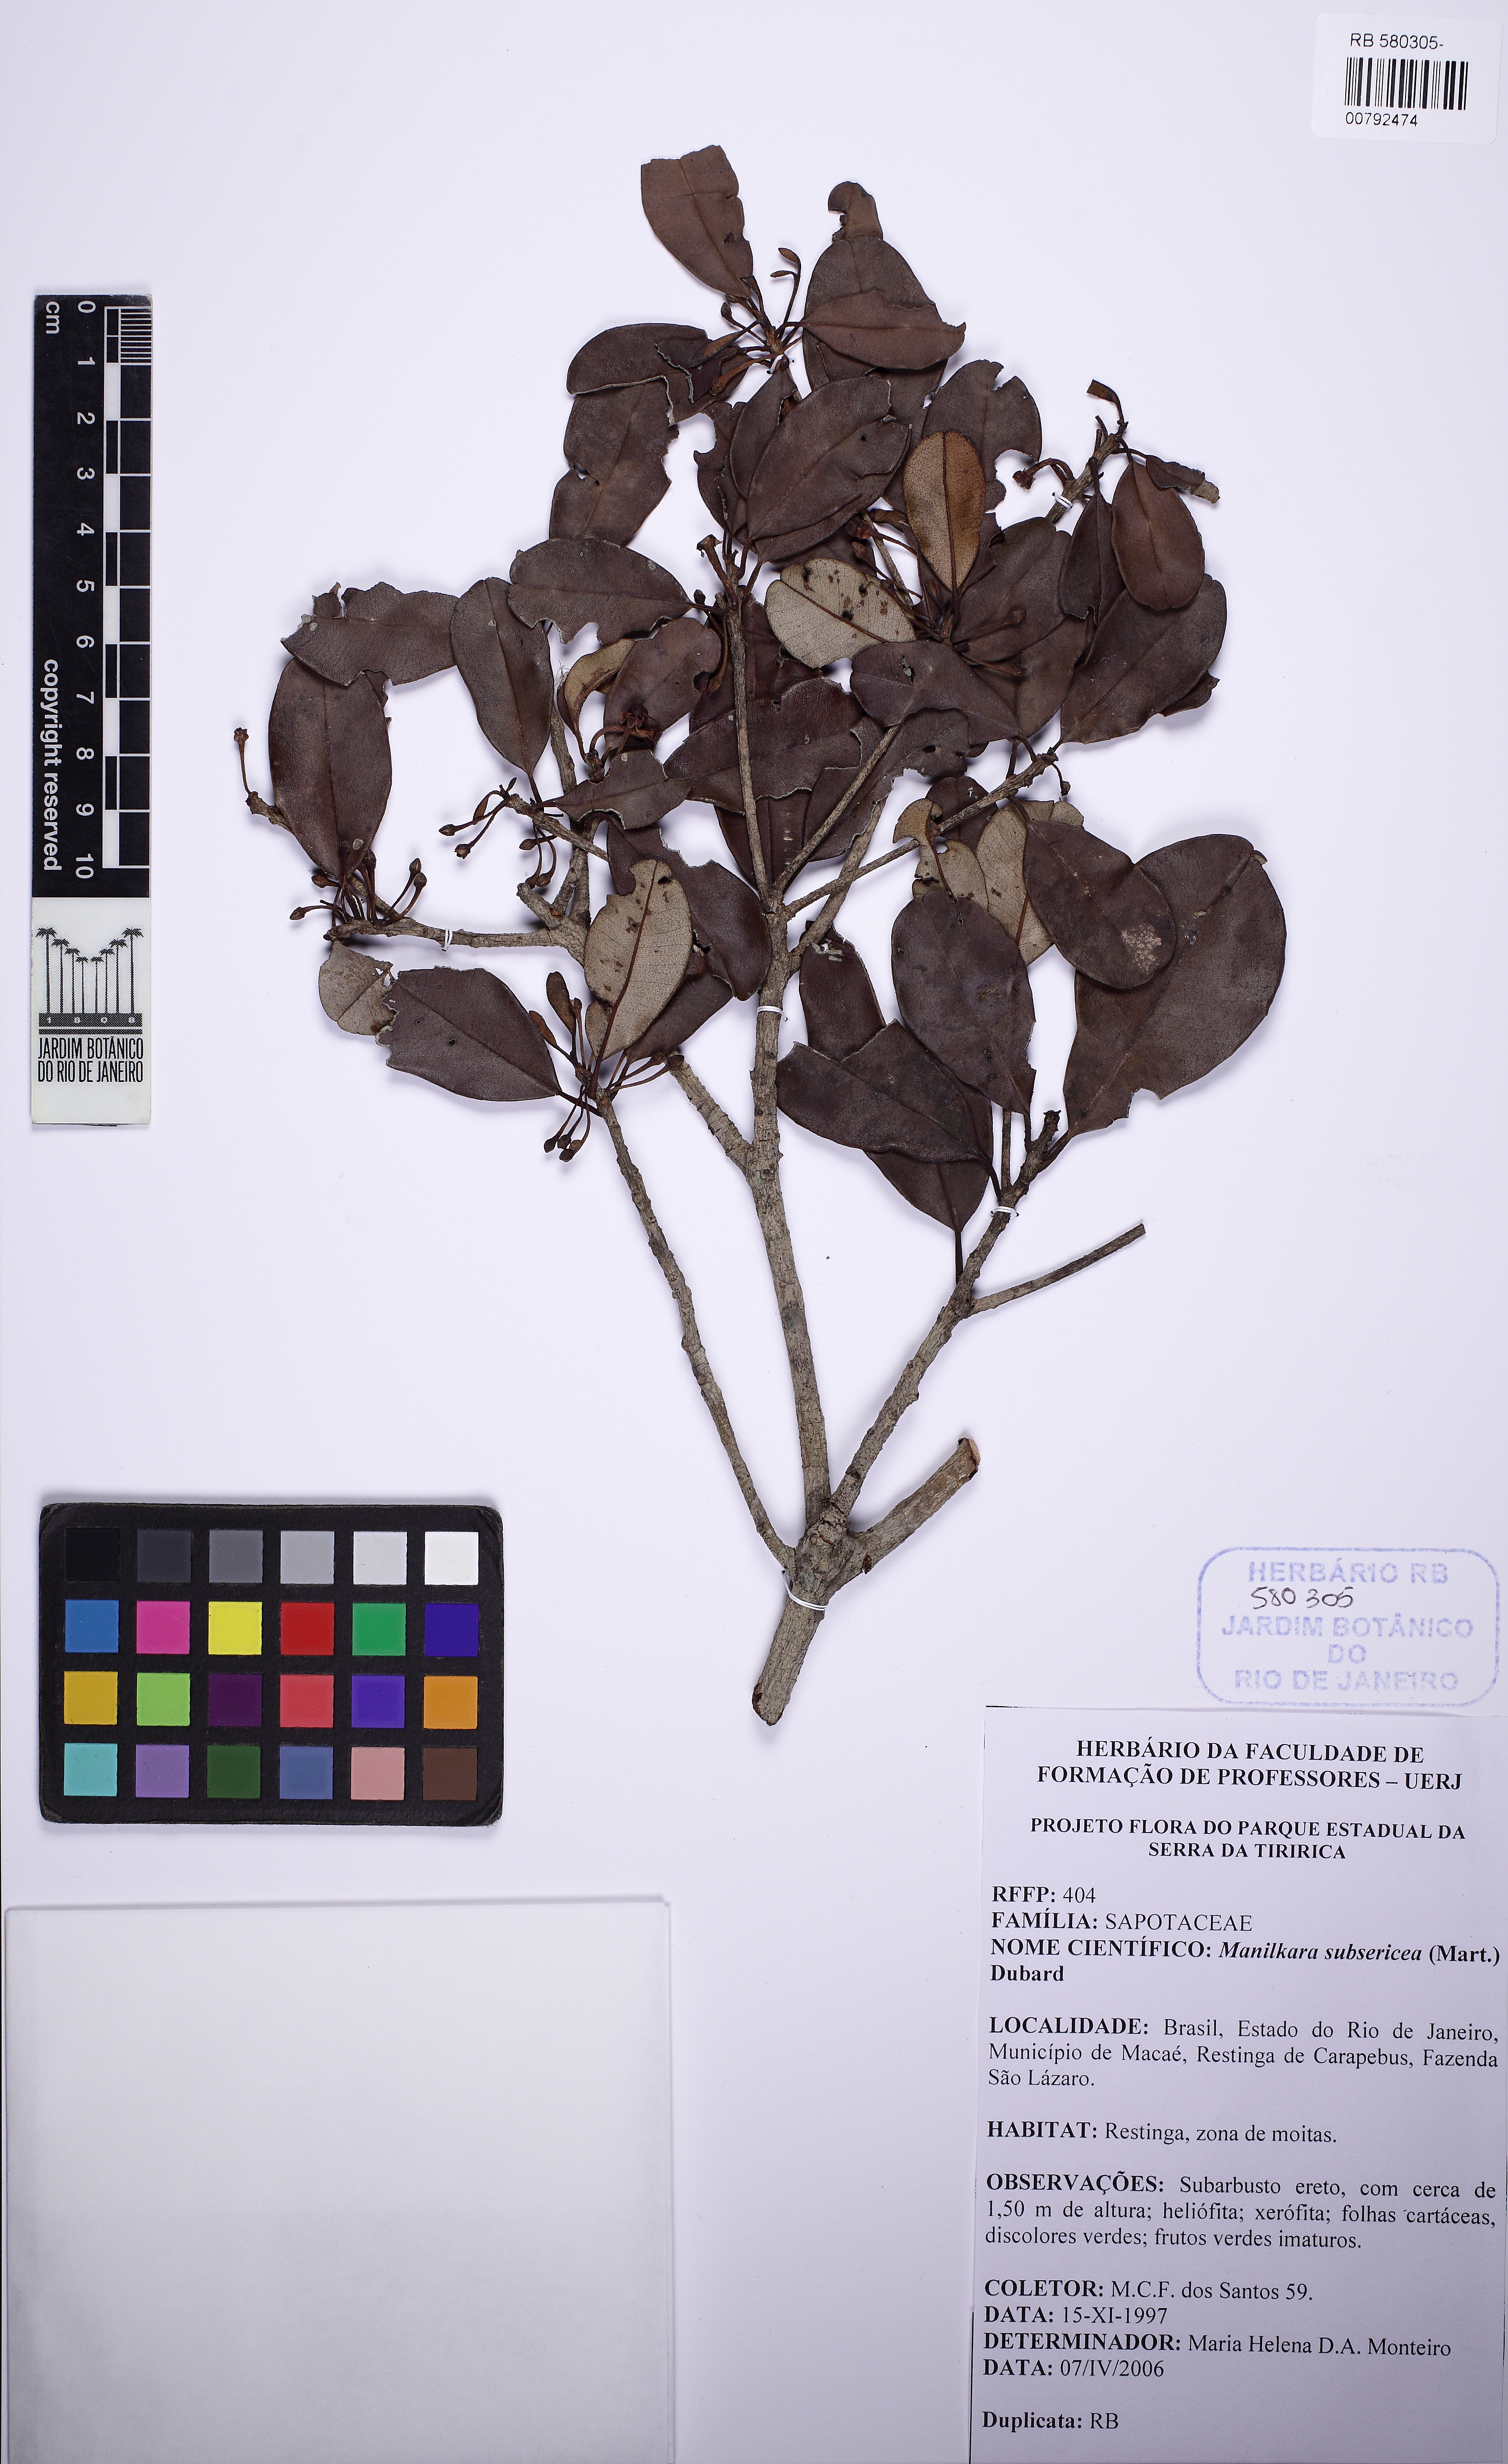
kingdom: Plantae
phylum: Tracheophyta
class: Magnoliopsida
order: Ericales
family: Sapotaceae
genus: Manilkara
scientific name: Manilkara subsericea
